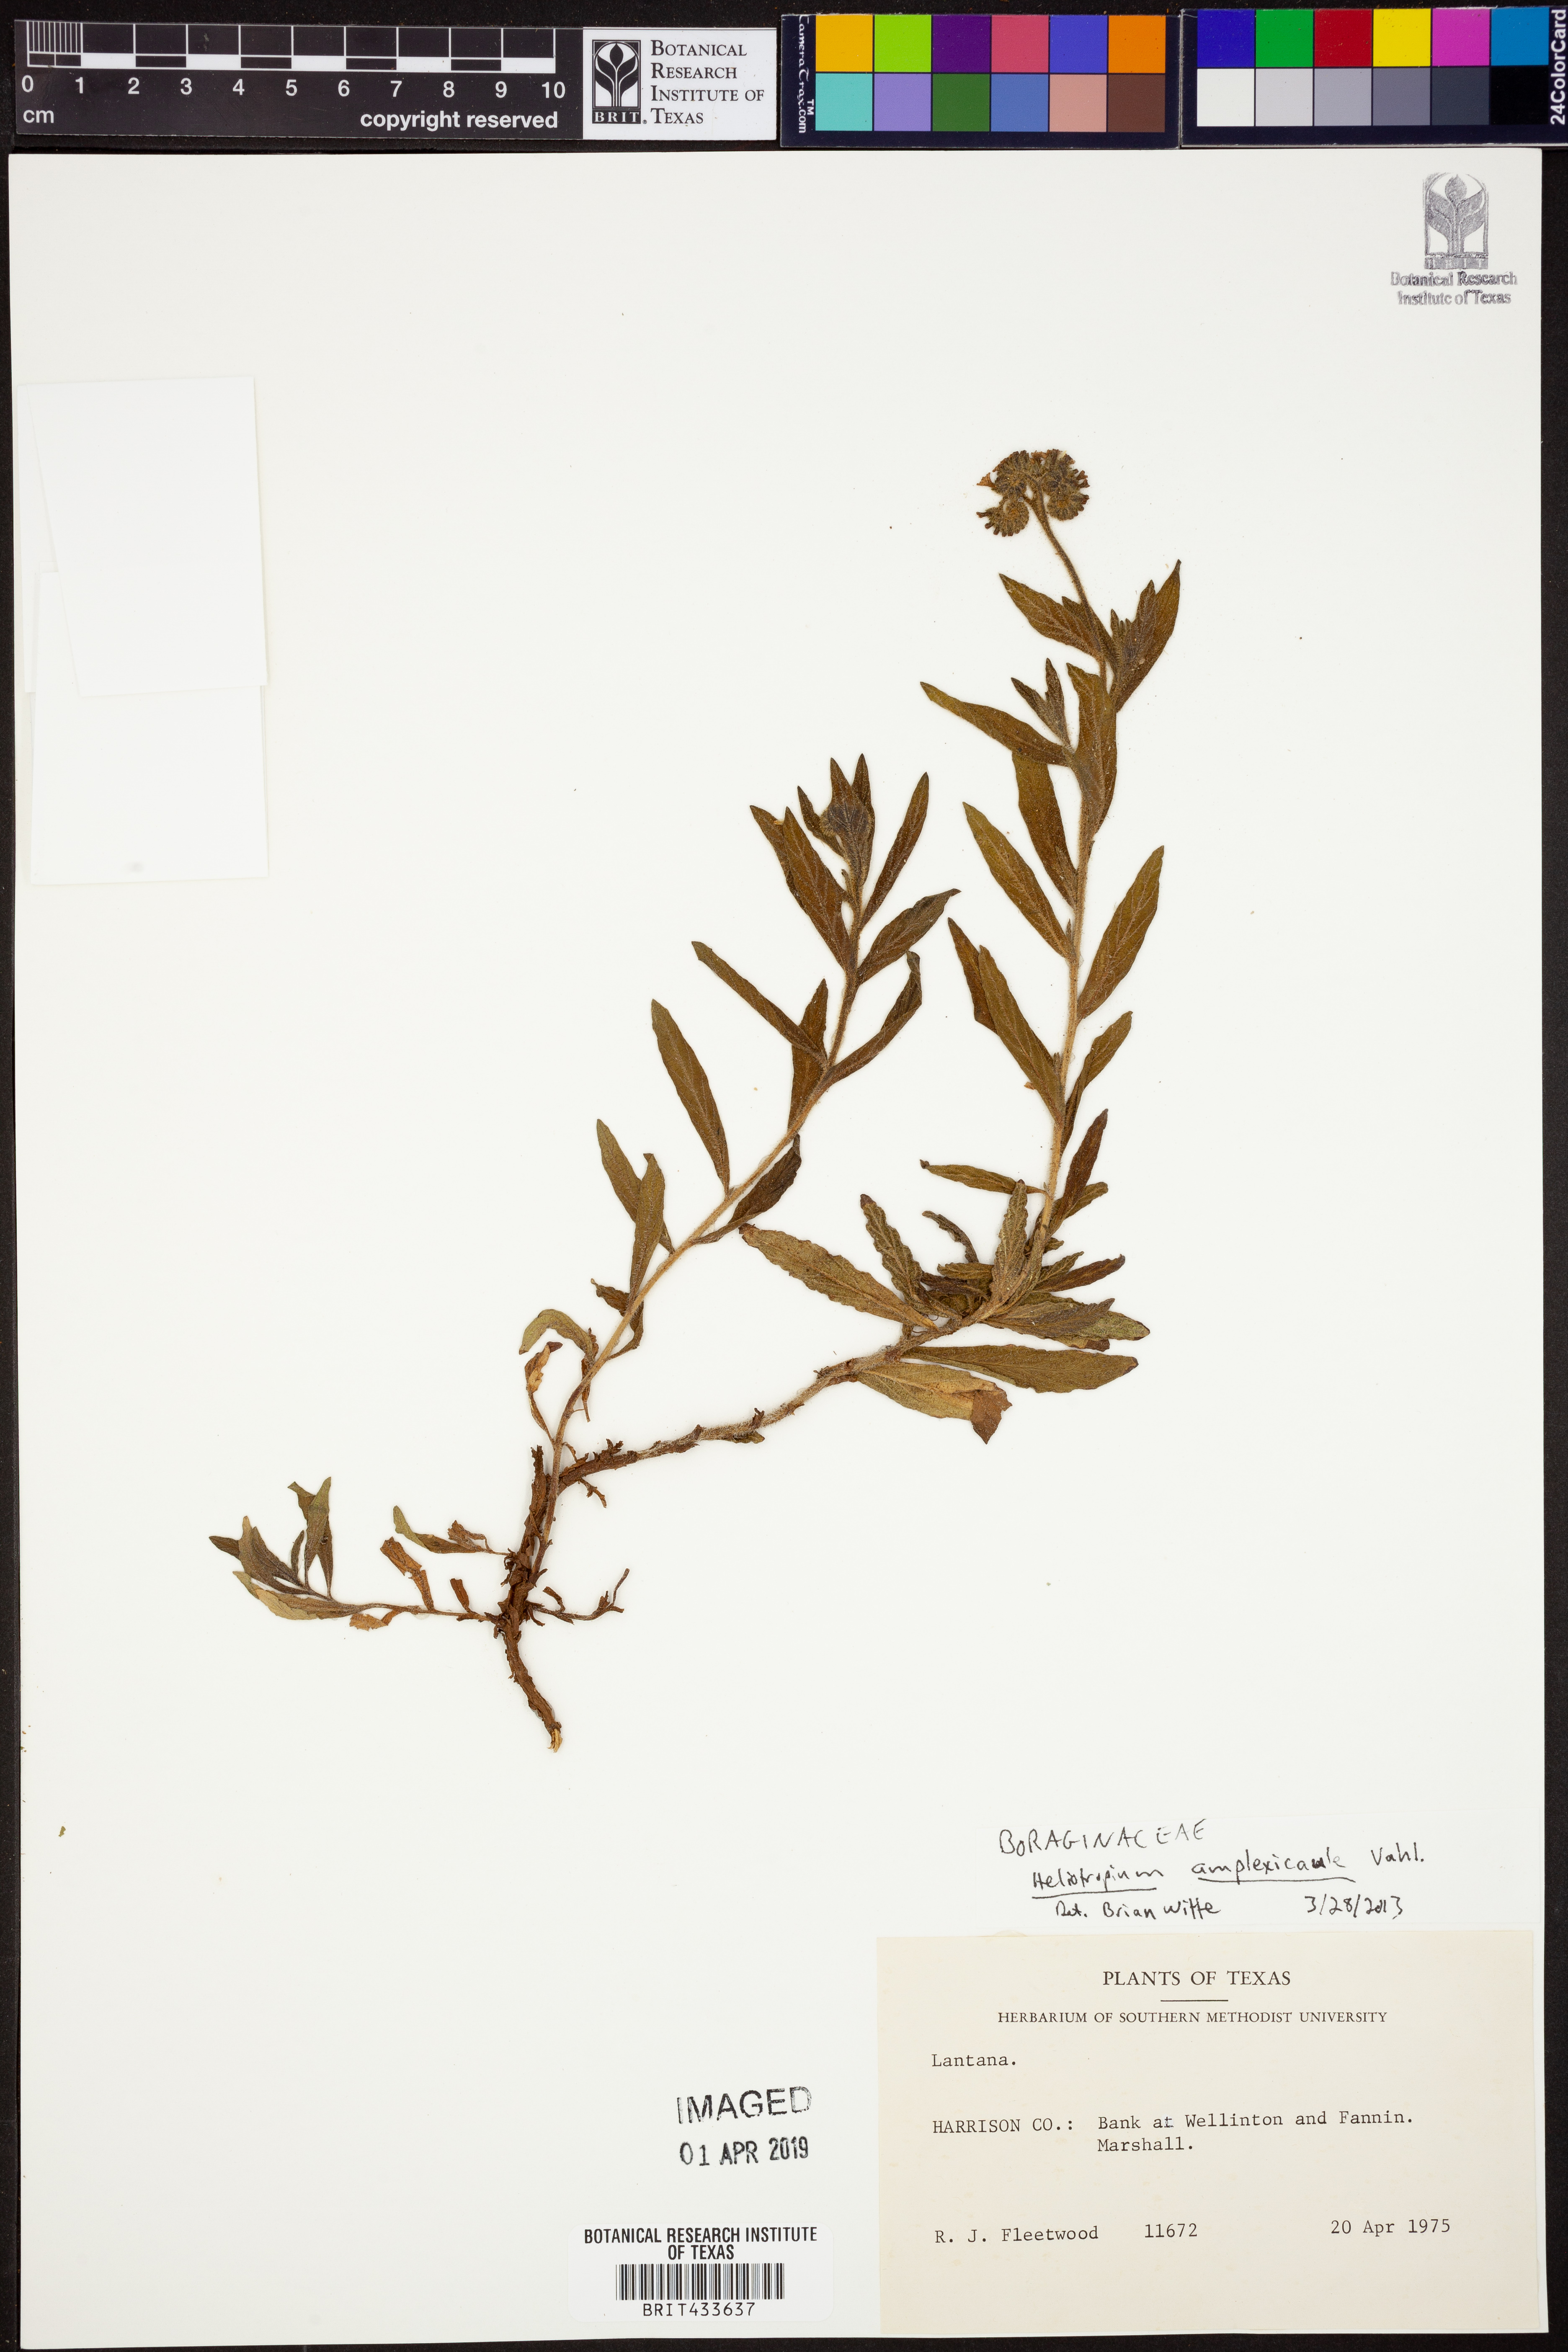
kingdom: Plantae
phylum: Tracheophyta
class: Magnoliopsida
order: Boraginales
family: Heliotropiaceae
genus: Heliotropium
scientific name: Heliotropium amplexicaule
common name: Clasping heliotrope
